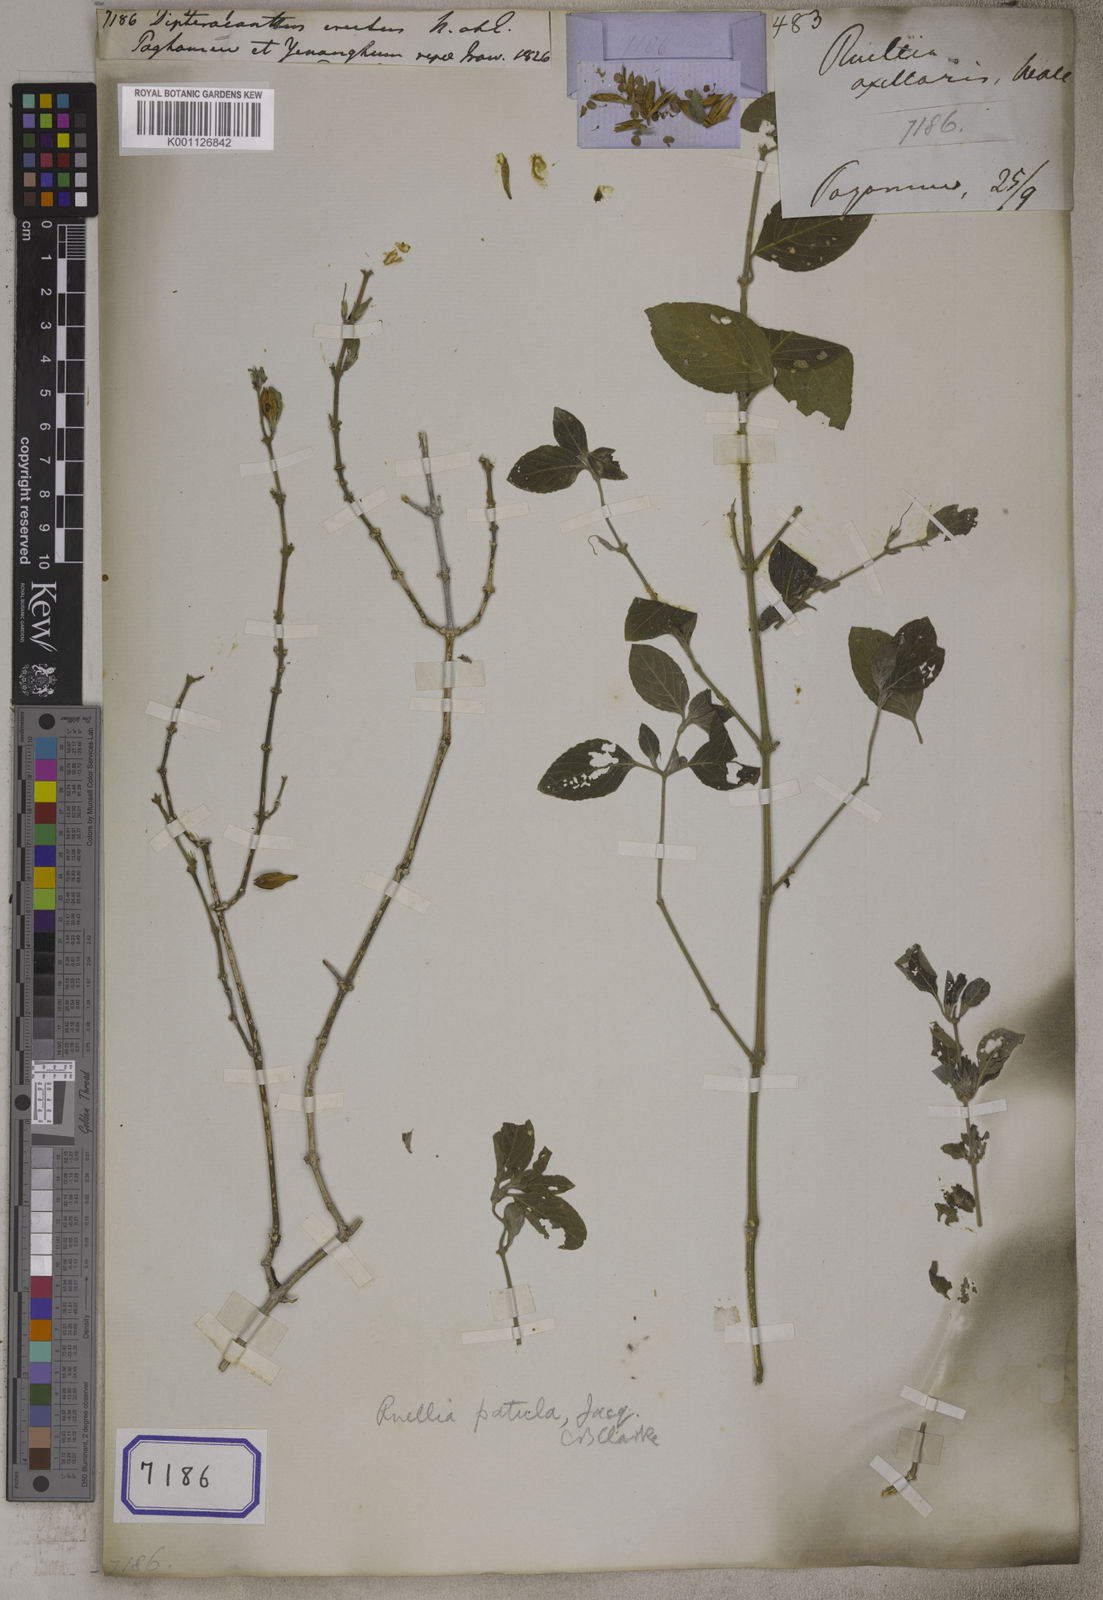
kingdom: Plantae
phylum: Tracheophyta
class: Magnoliopsida
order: Lamiales
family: Acanthaceae
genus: Ruellia
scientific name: Ruellia patula
